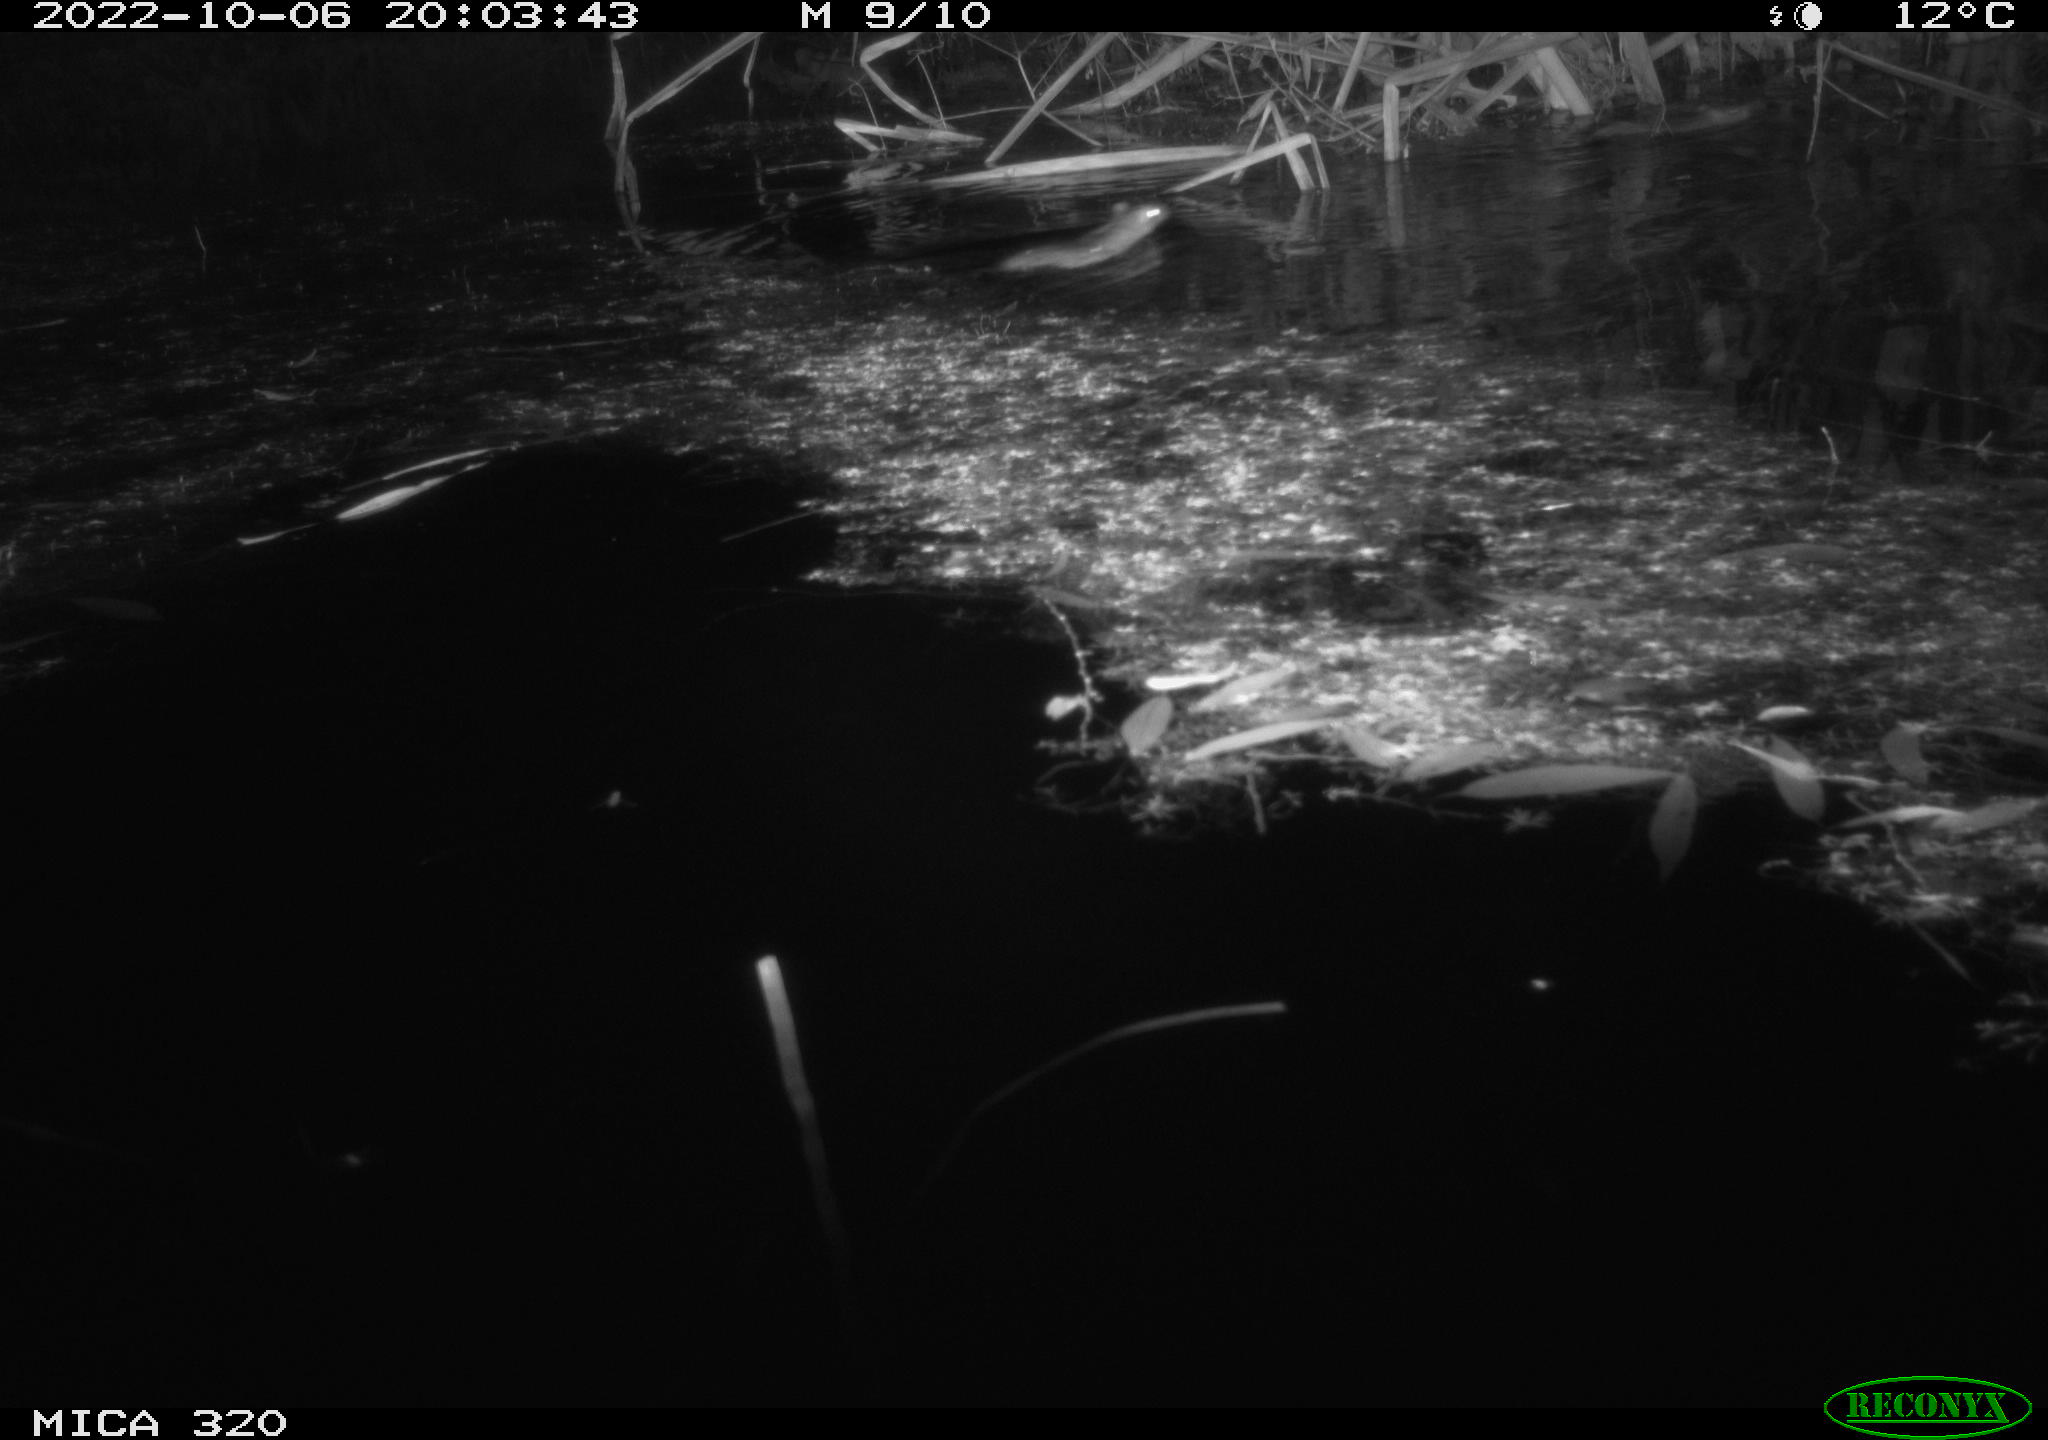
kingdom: Animalia
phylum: Chordata
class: Mammalia
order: Rodentia
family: Muridae
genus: Rattus
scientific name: Rattus norvegicus
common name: Brown rat
